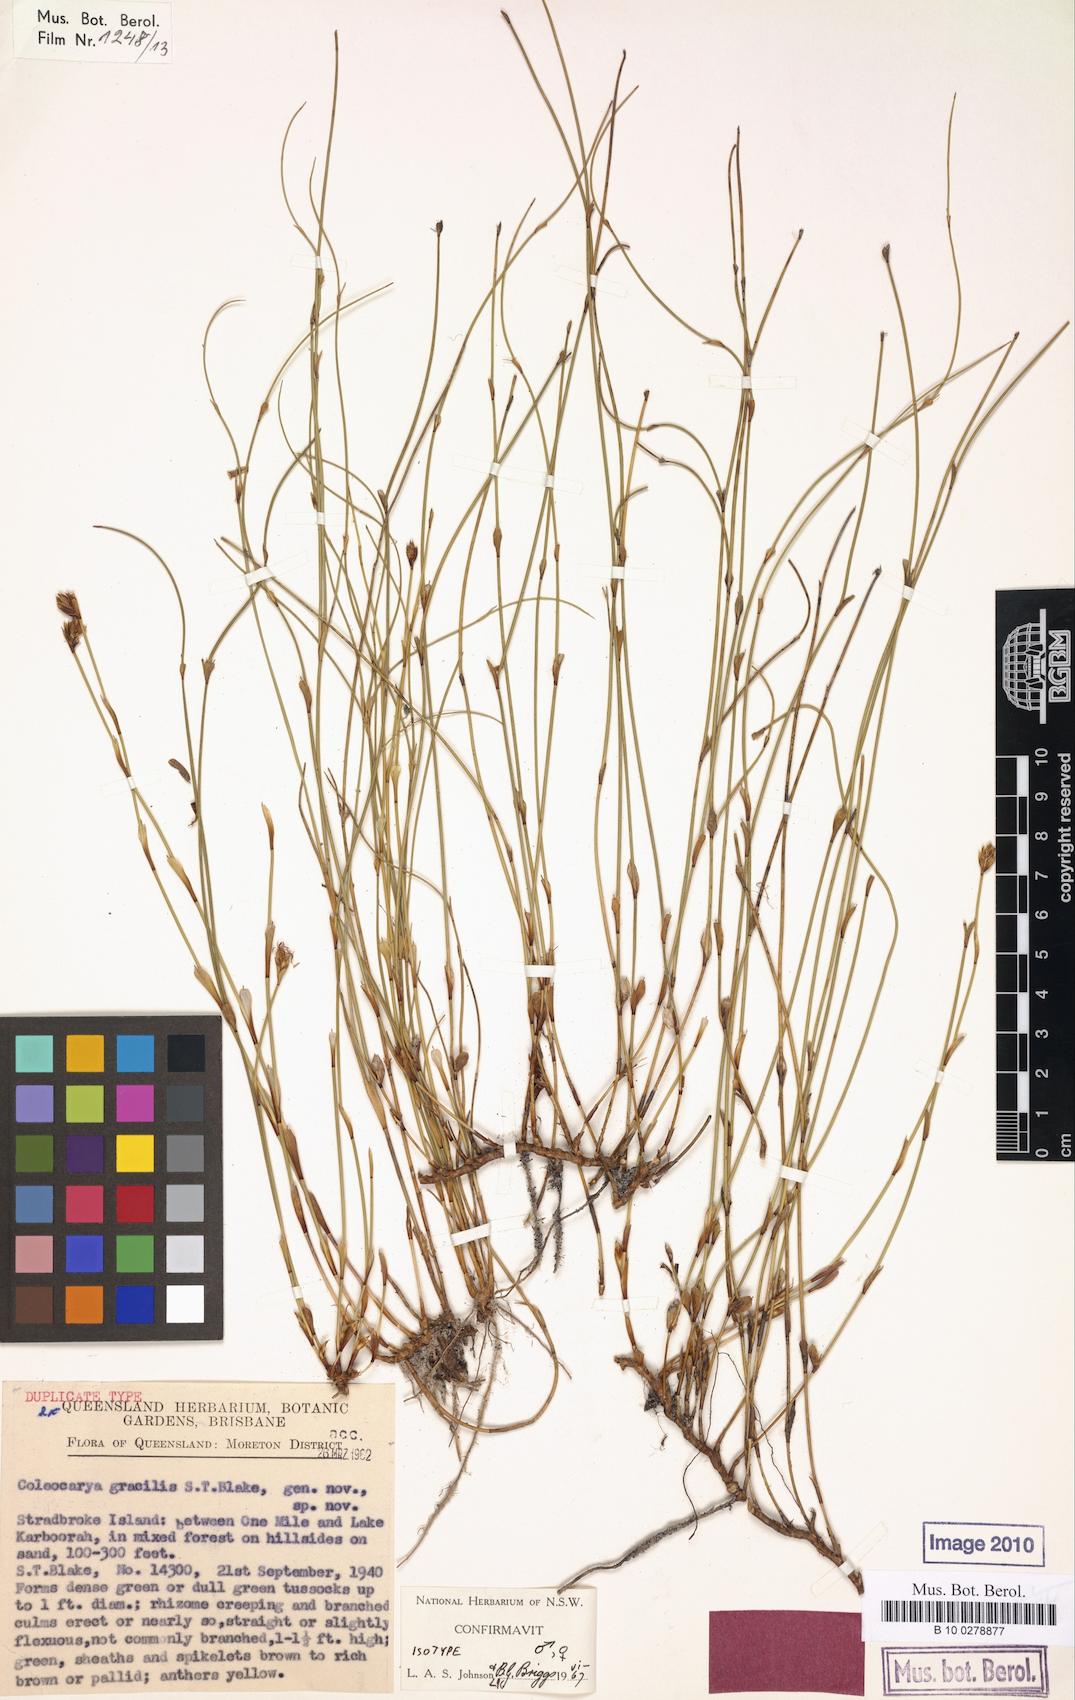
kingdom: Plantae
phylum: Tracheophyta
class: Liliopsida
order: Poales
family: Restionaceae
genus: Coleocarya
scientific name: Coleocarya gracilis
